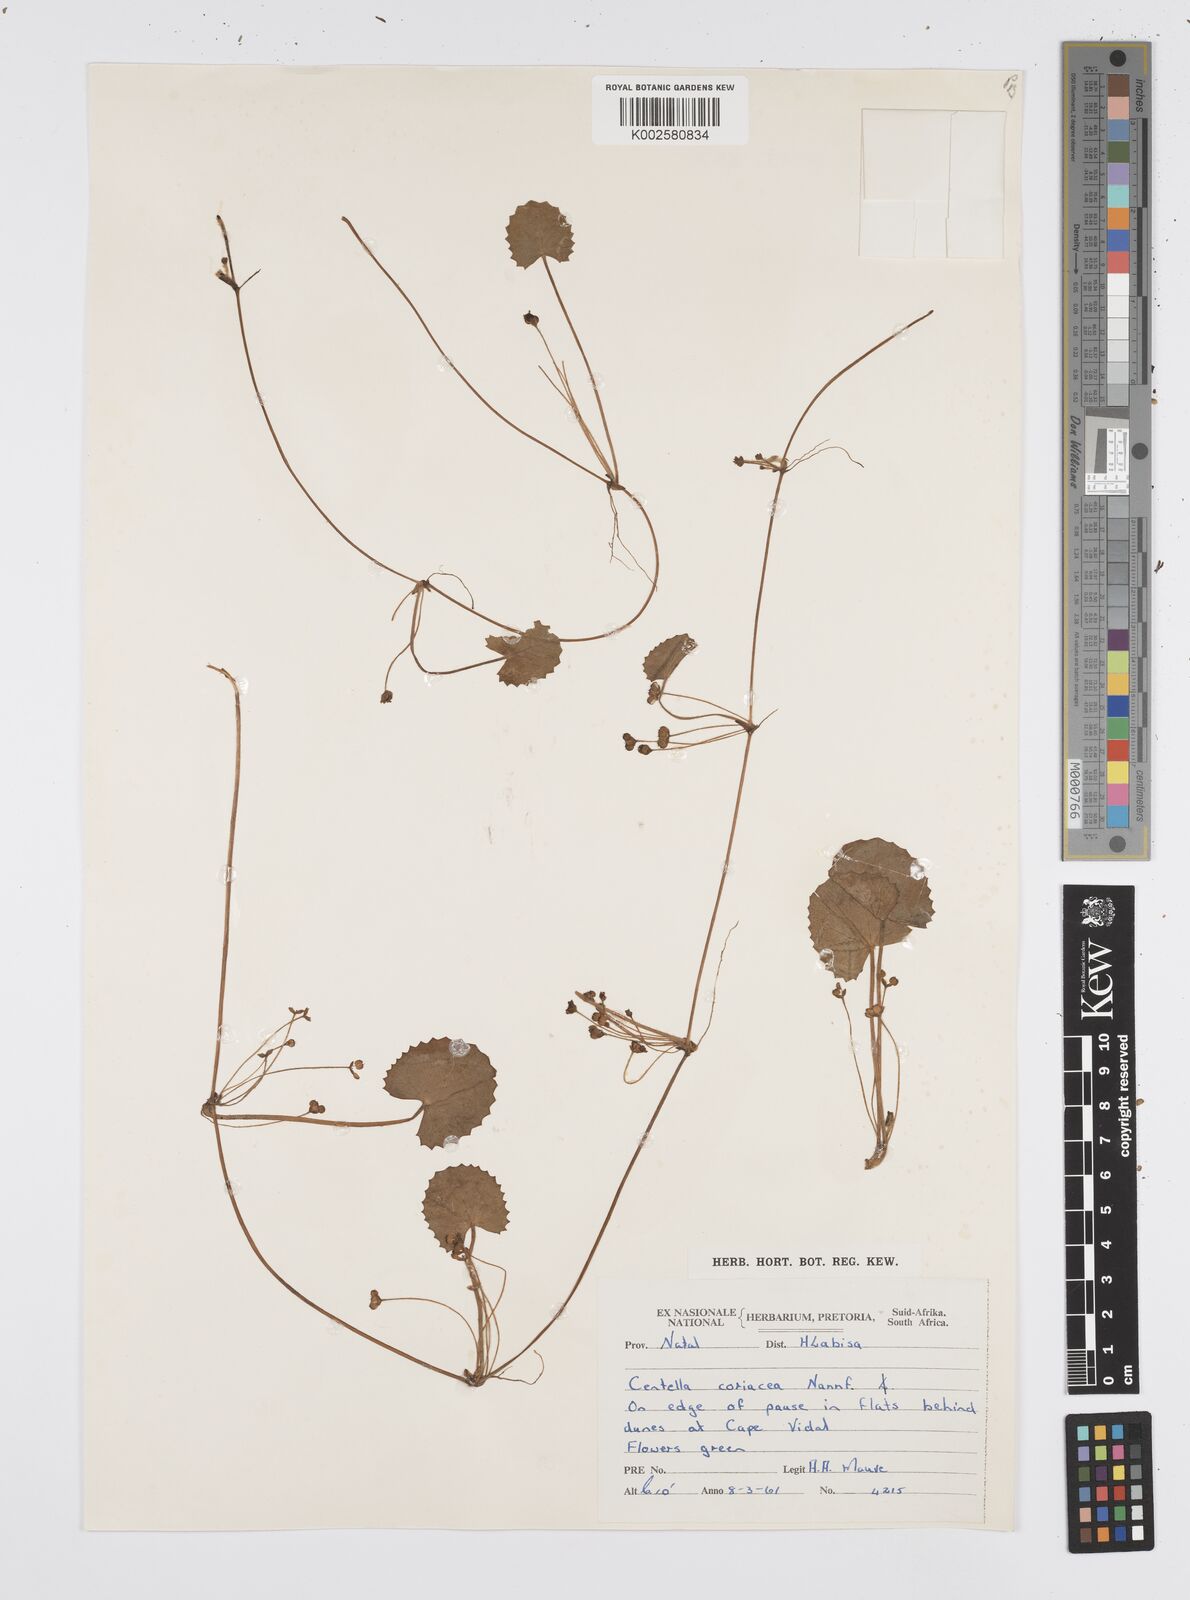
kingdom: Plantae
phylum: Tracheophyta
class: Magnoliopsida
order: Apiales
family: Apiaceae
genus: Centella
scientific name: Centella coriacea
